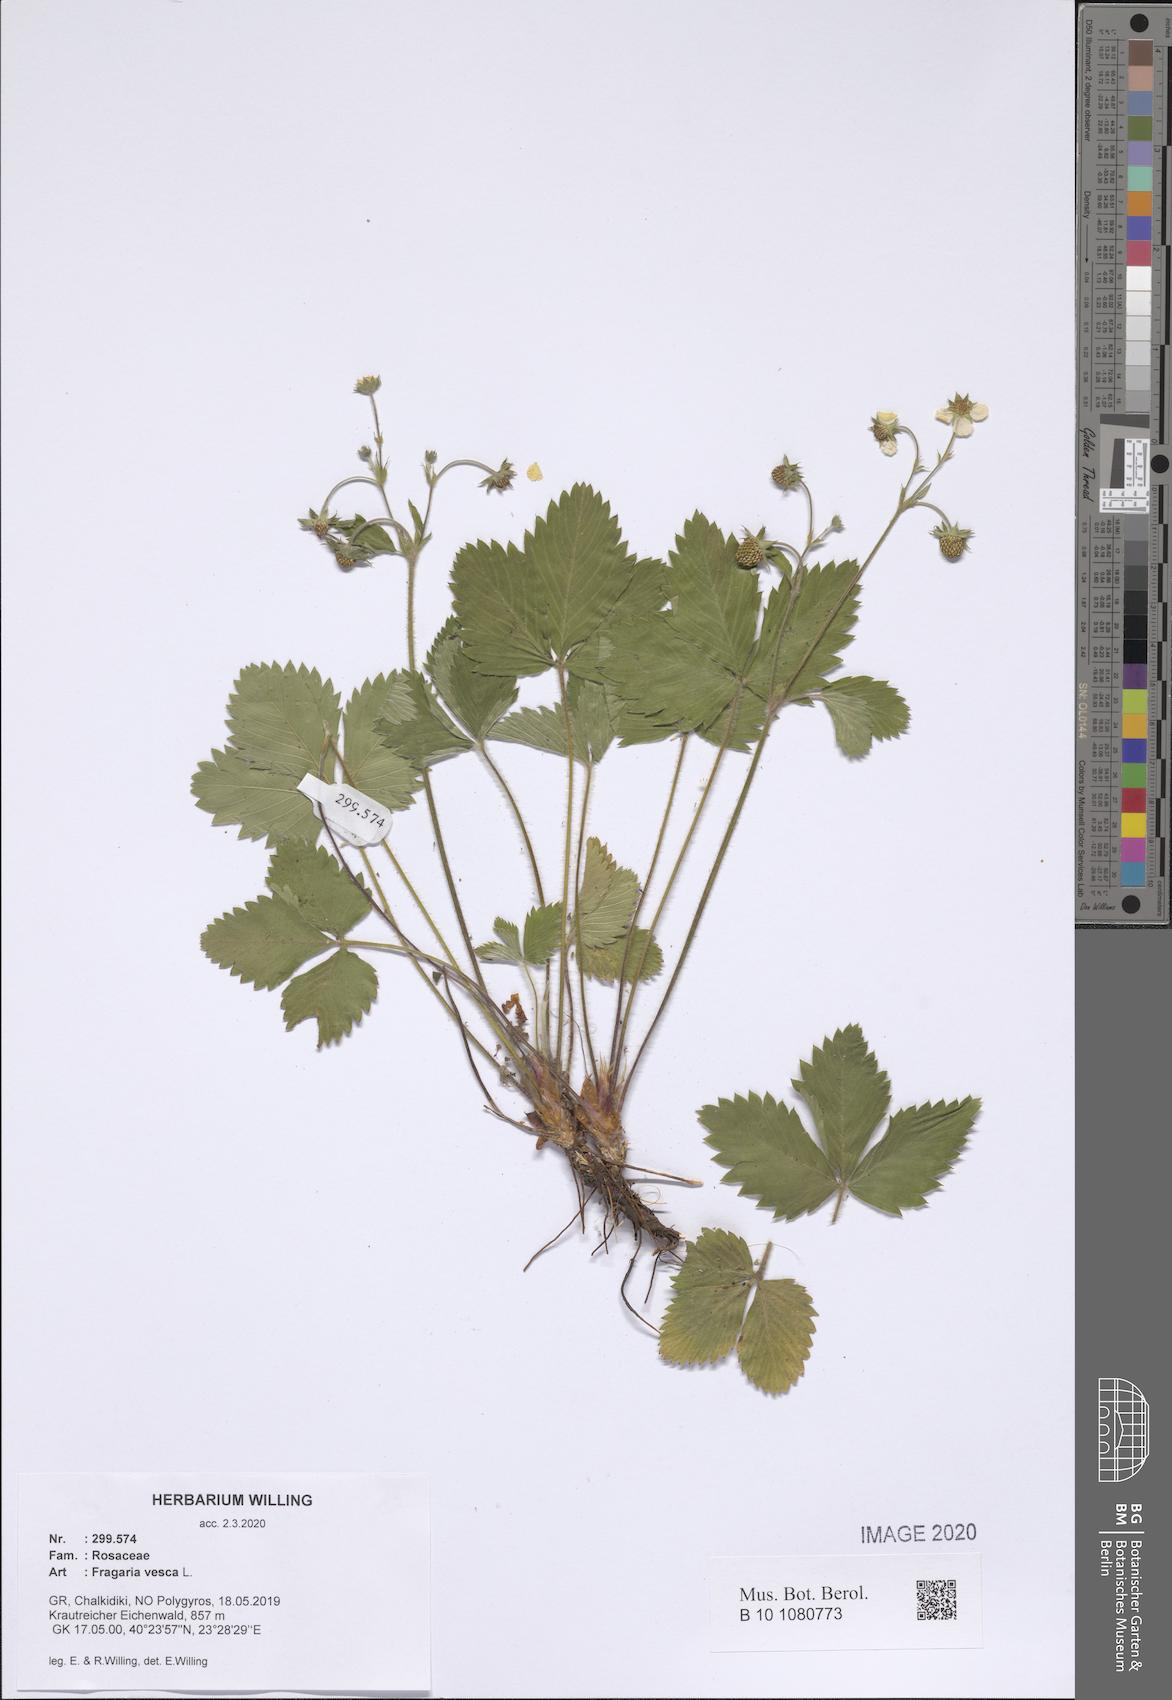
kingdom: Plantae
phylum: Tracheophyta
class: Magnoliopsida
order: Rosales
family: Rosaceae
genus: Fragaria
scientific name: Fragaria vesca
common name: Wild strawberry
